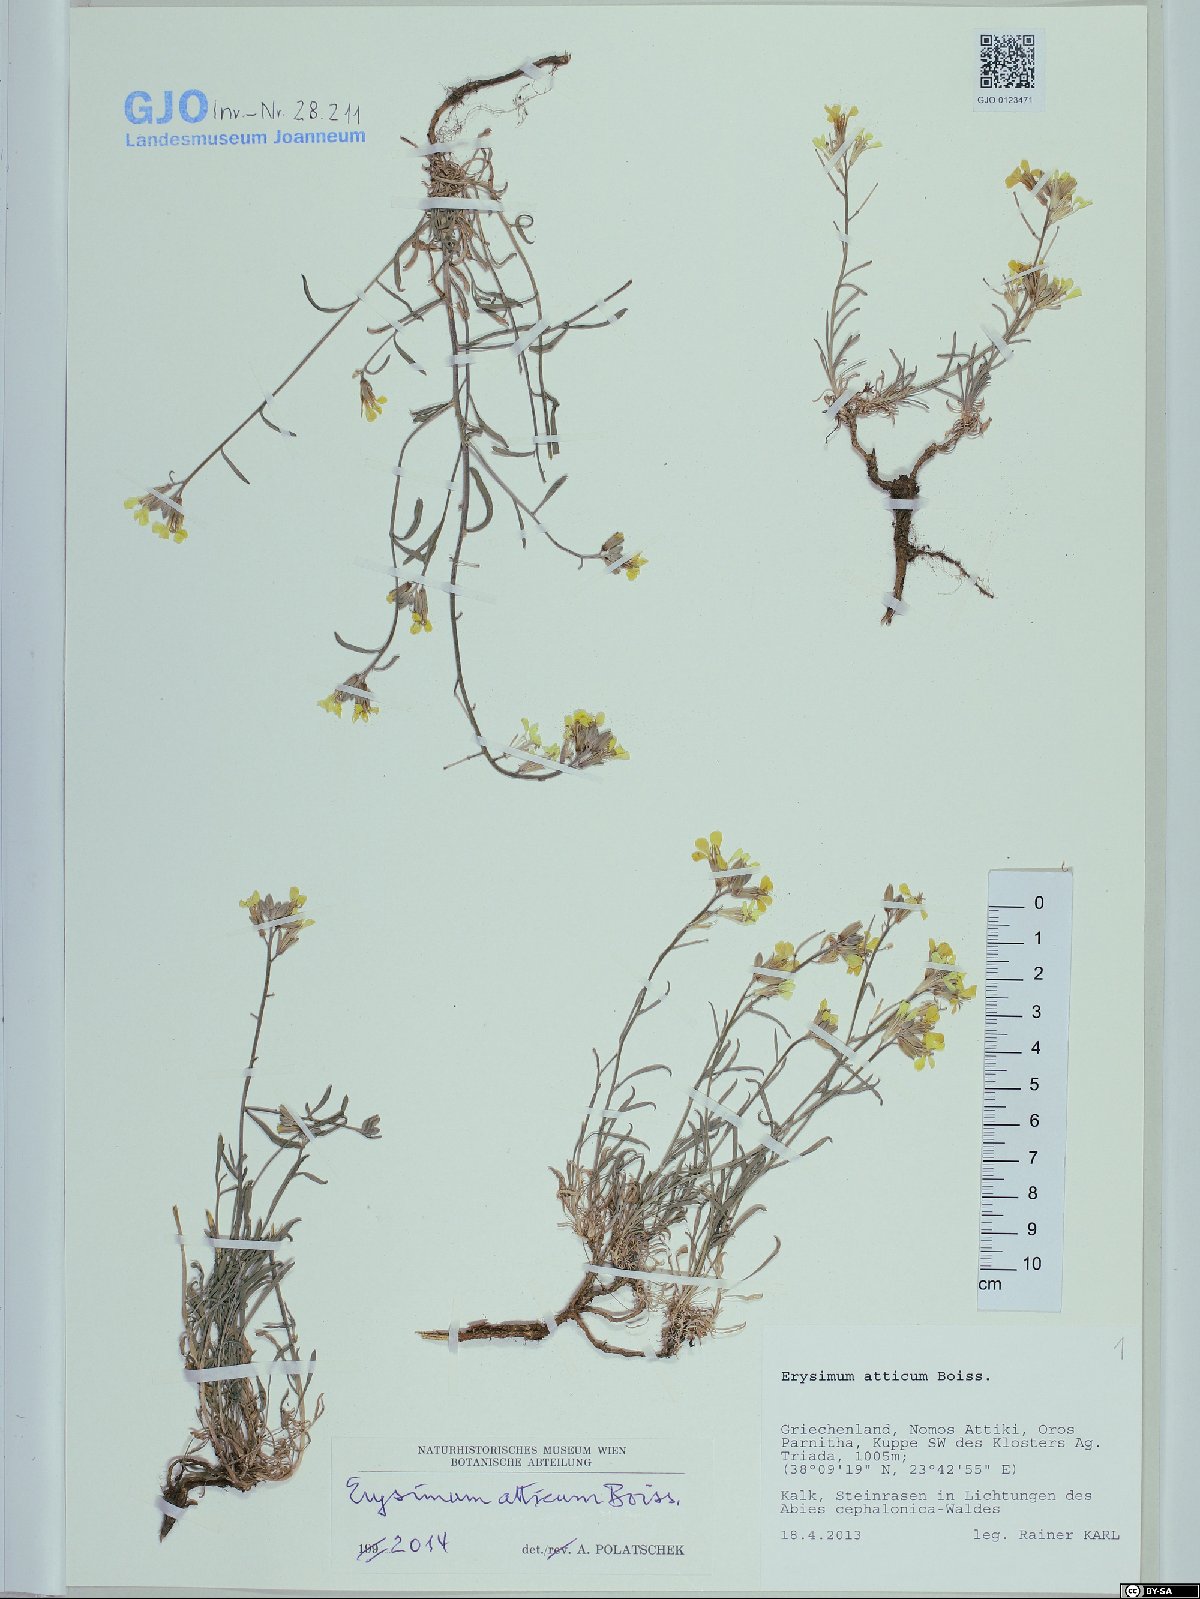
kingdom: Plantae
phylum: Tracheophyta
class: Magnoliopsida
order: Brassicales
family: Brassicaceae
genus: Erysimum
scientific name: Erysimum atticum
